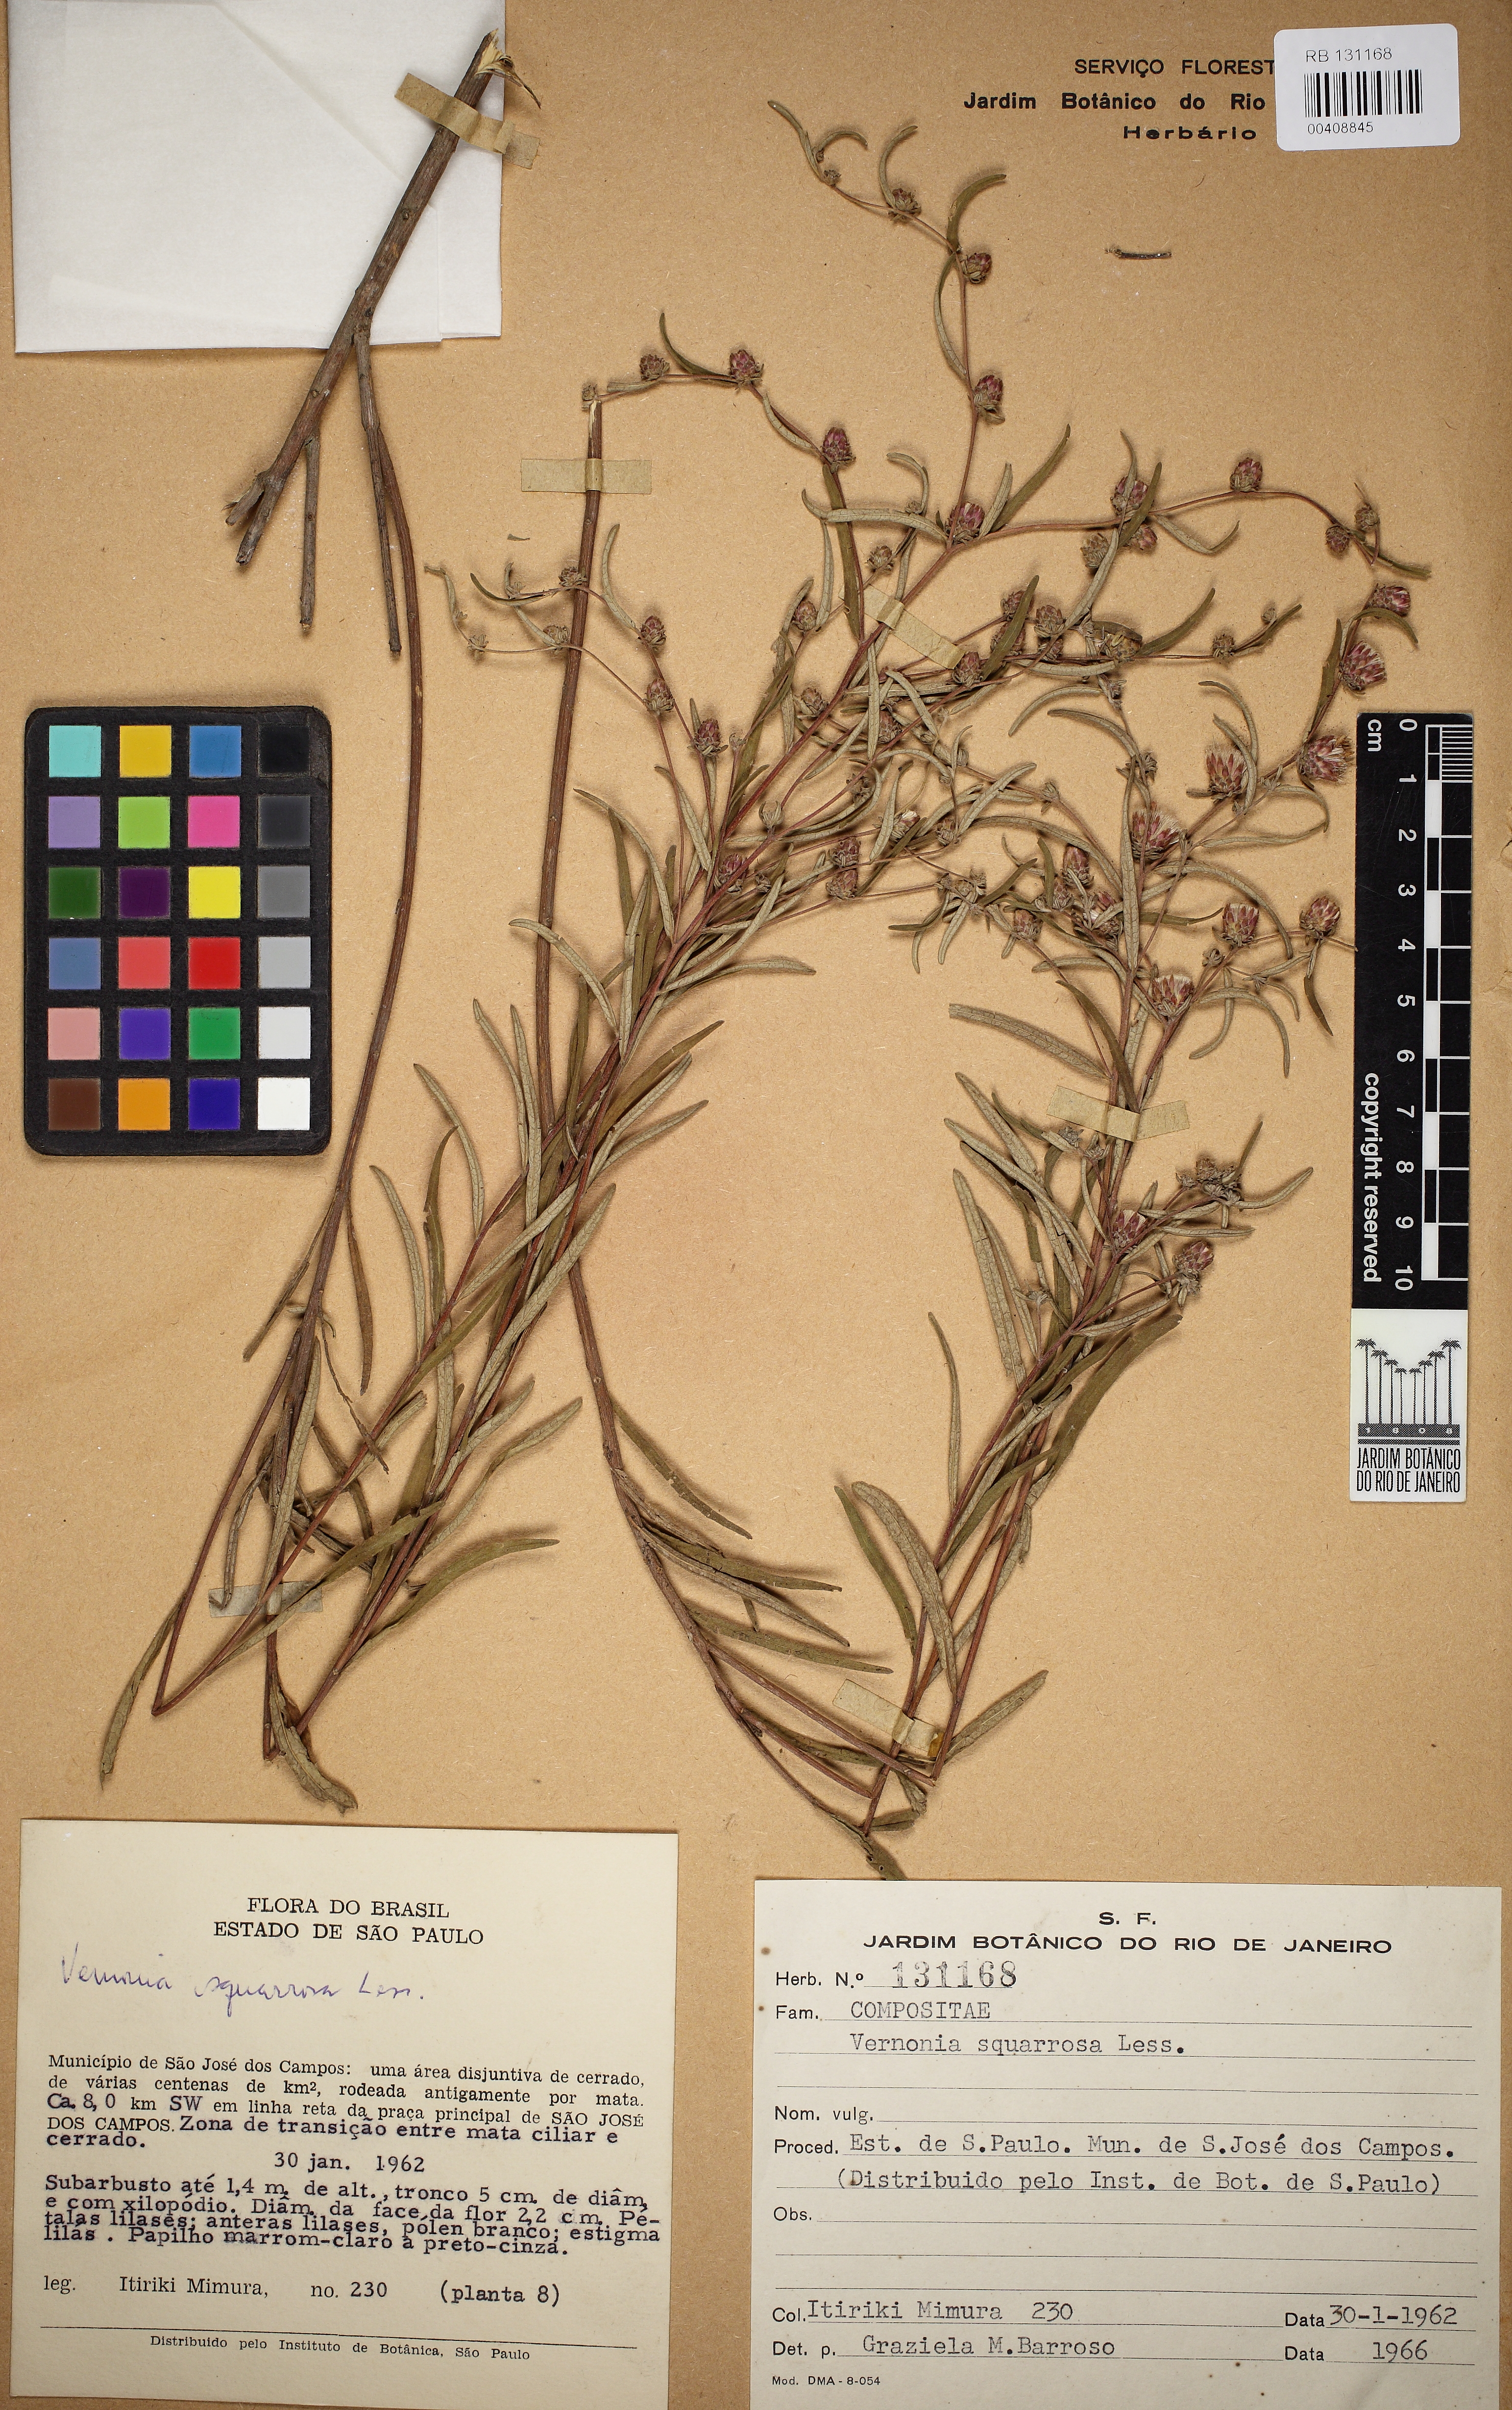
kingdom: Plantae
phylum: Tracheophyta
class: Magnoliopsida
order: Asterales
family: Asteraceae
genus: Lessingianthus
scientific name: Lessingianthus plantaginoides
